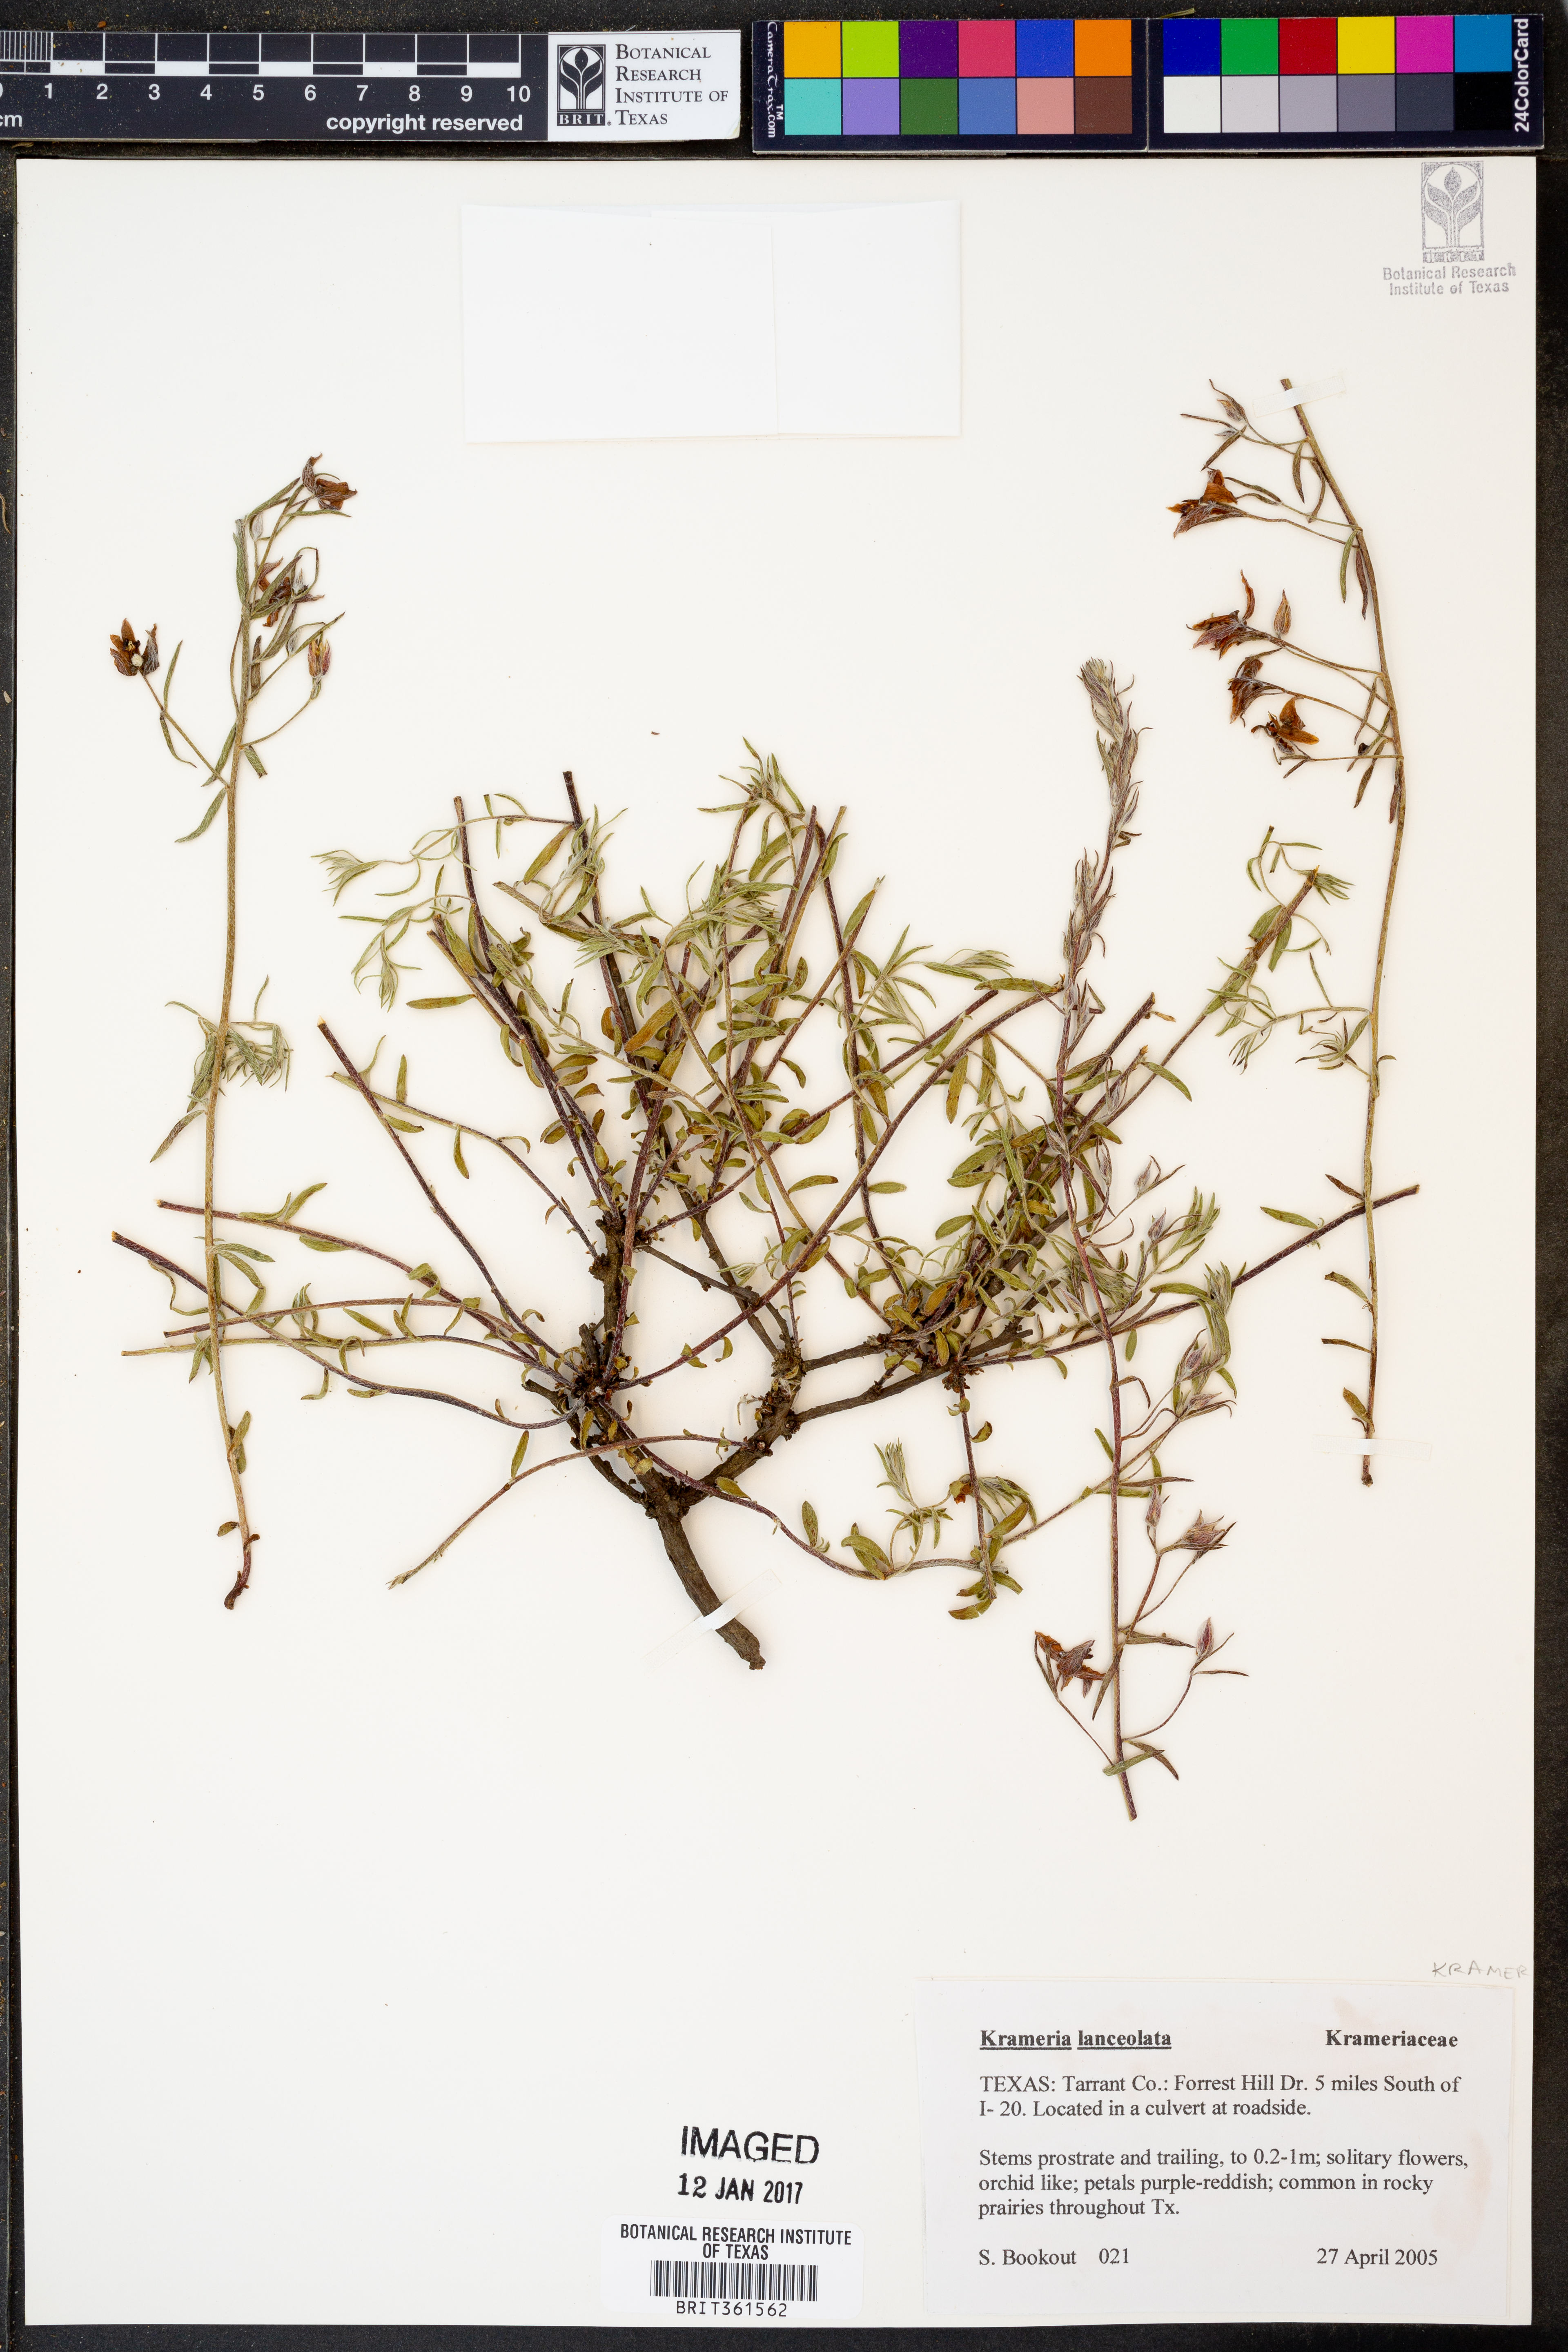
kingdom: Plantae
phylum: Tracheophyta
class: Magnoliopsida
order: Zygophyllales
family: Krameriaceae
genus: Krameria
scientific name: Krameria lanceolata
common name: Ratany
